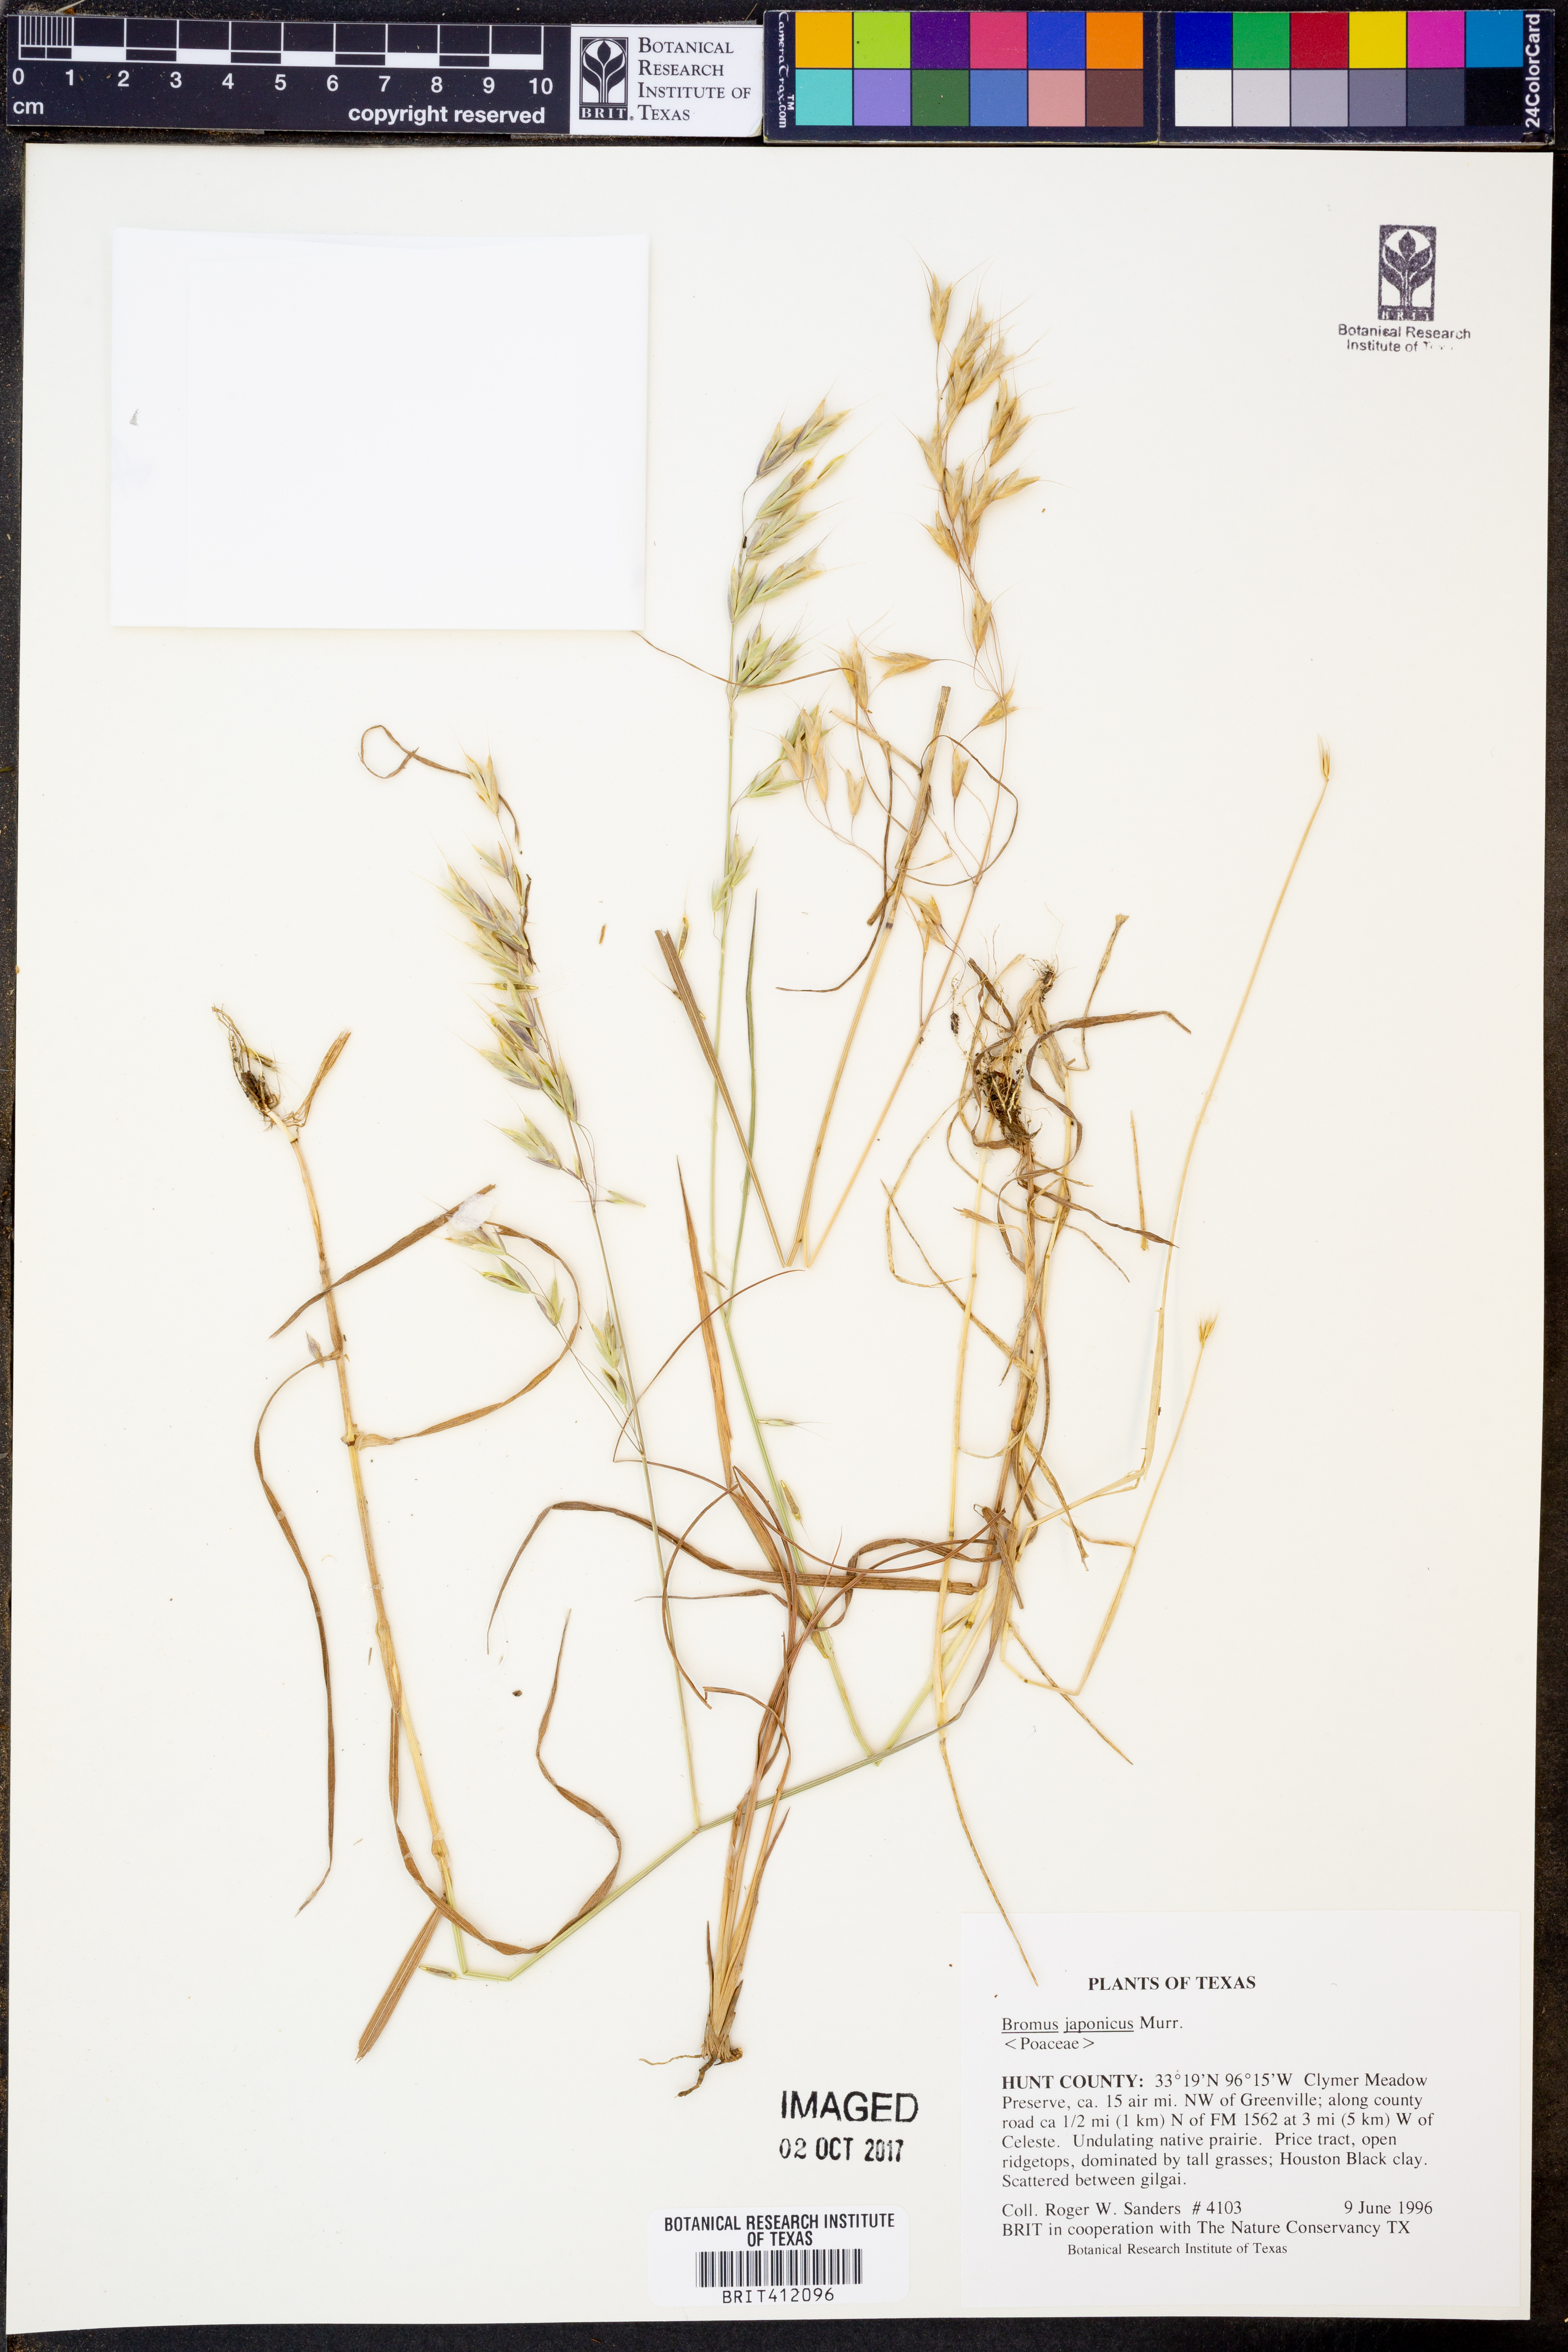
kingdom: Plantae
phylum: Tracheophyta
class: Liliopsida
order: Poales
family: Poaceae
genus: Bromus
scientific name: Bromus japonicus
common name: Japanese brome
